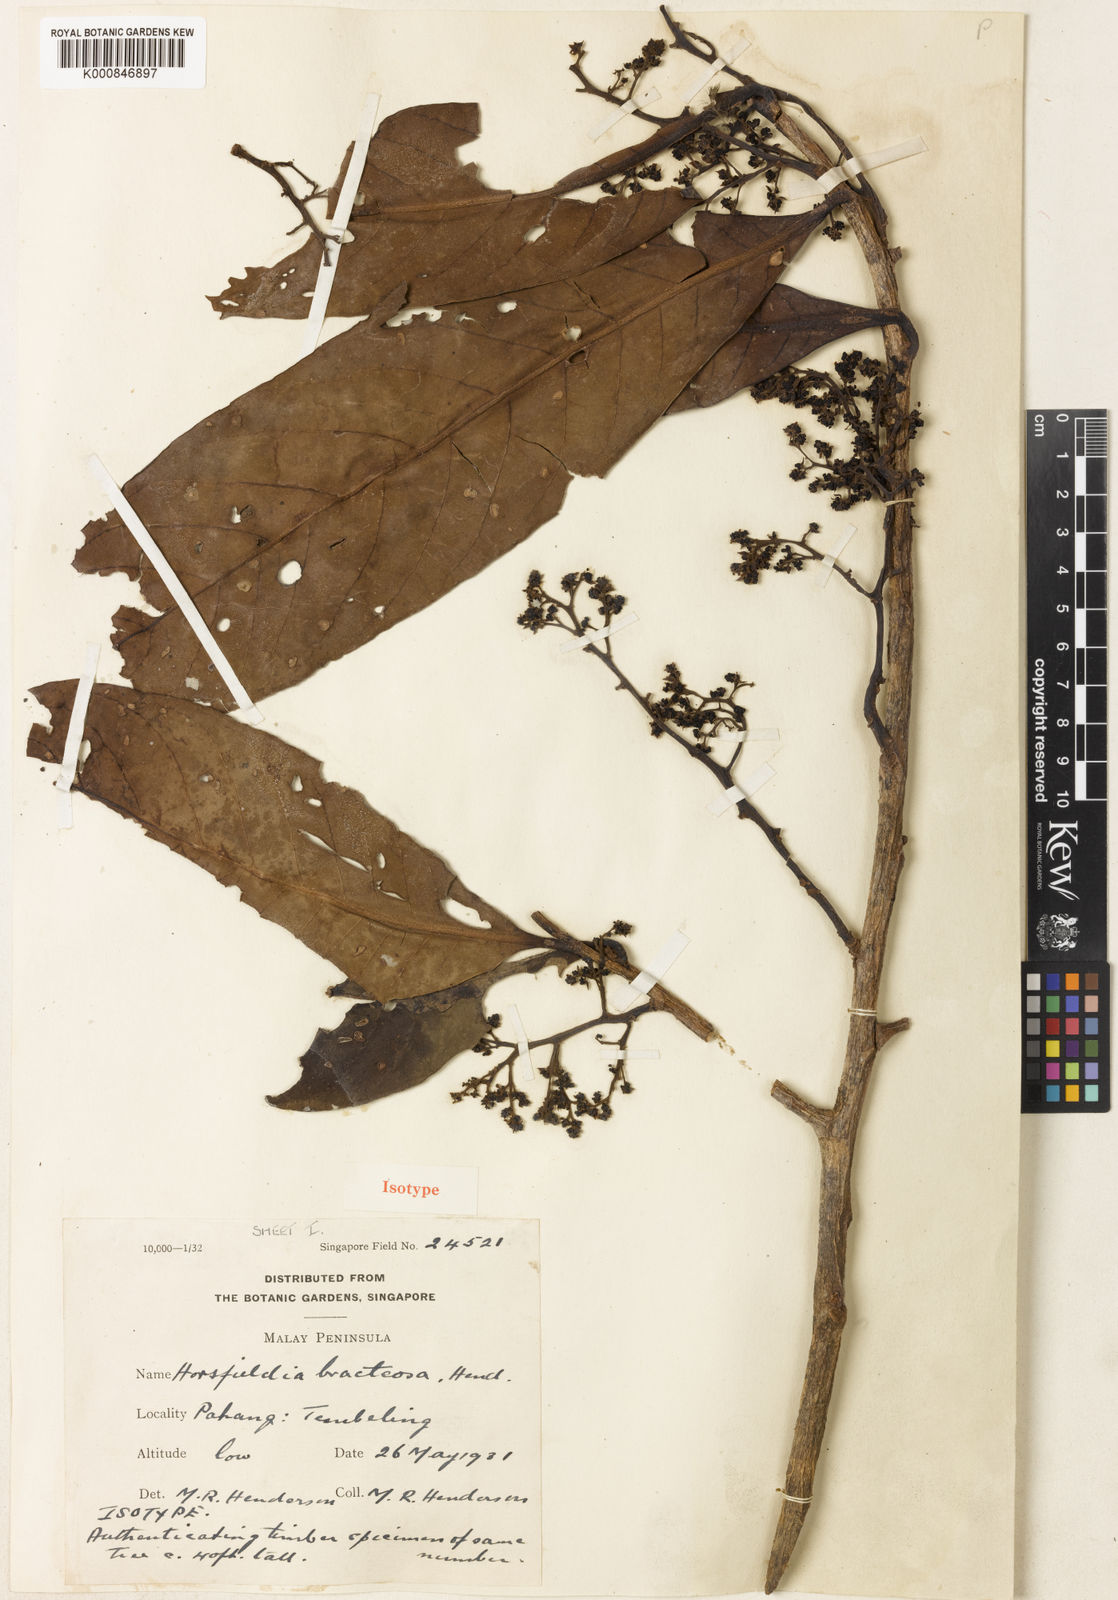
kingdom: Plantae
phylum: Tracheophyta
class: Magnoliopsida
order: Magnoliales
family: Myristicaceae
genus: Horsfieldia
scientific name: Horsfieldia sucosa
